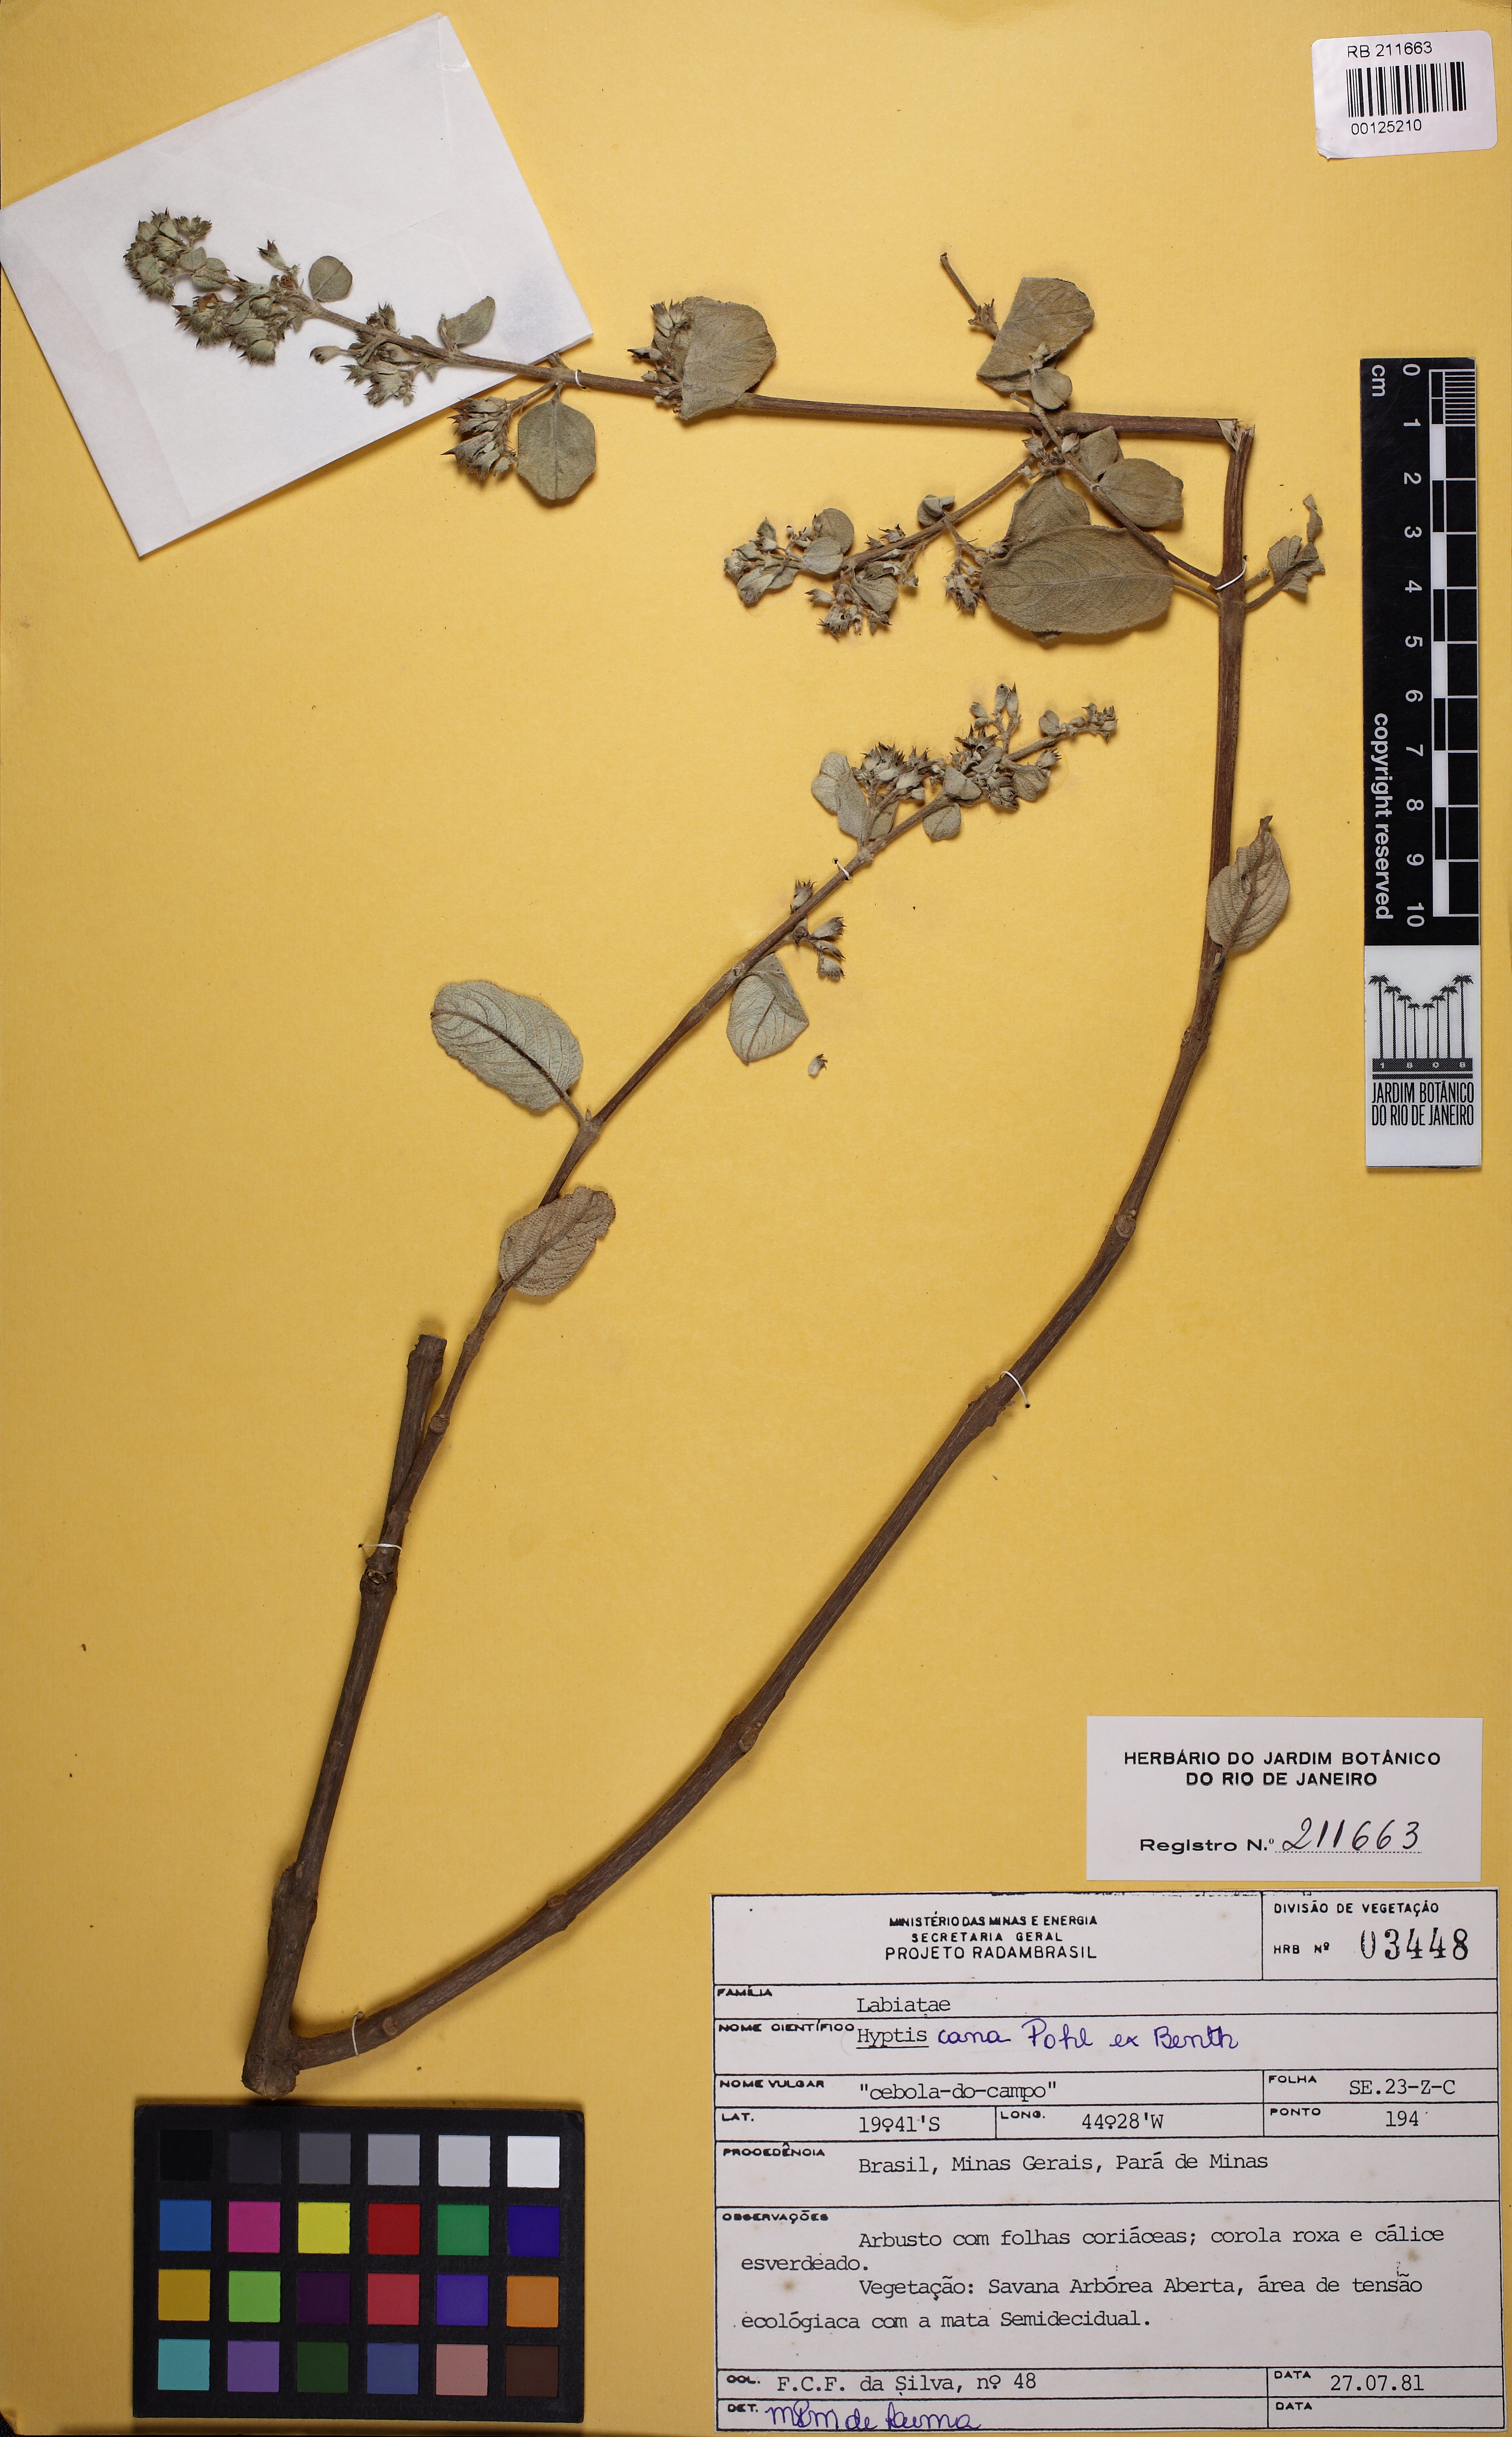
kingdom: Plantae
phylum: Tracheophyta
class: Magnoliopsida
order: Lamiales
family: Lamiaceae
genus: Hyptidendron
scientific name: Hyptidendron canum
